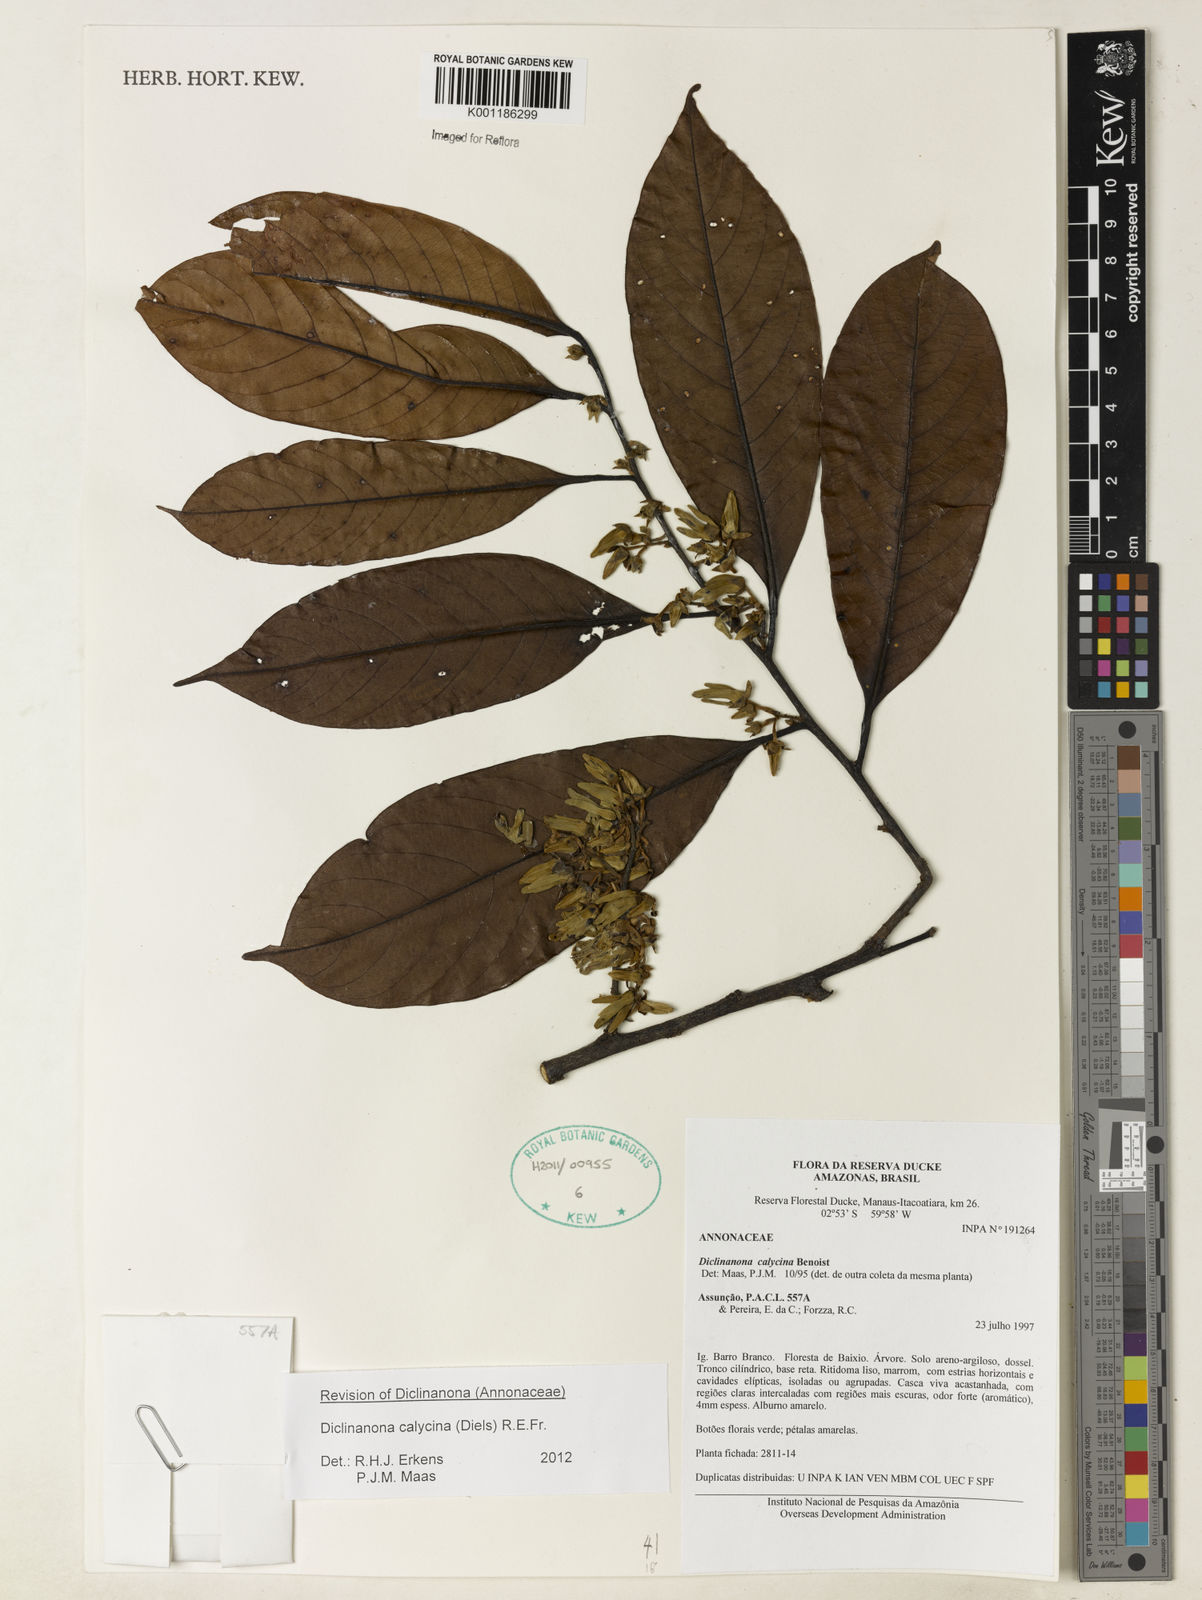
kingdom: Plantae
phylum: Tracheophyta
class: Magnoliopsida
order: Magnoliales
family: Annonaceae
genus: Diclinanona
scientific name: Diclinanona calycina
